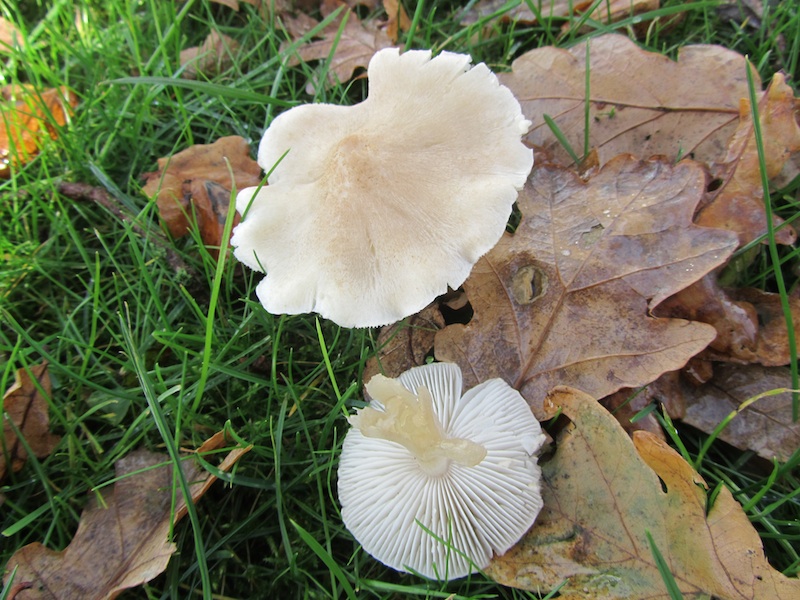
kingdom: Fungi
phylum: Basidiomycota
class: Agaricomycetes
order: Agaricales
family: Tricholomataceae
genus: Tricholoma
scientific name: Tricholoma argyraceum
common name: spids ridderhat
